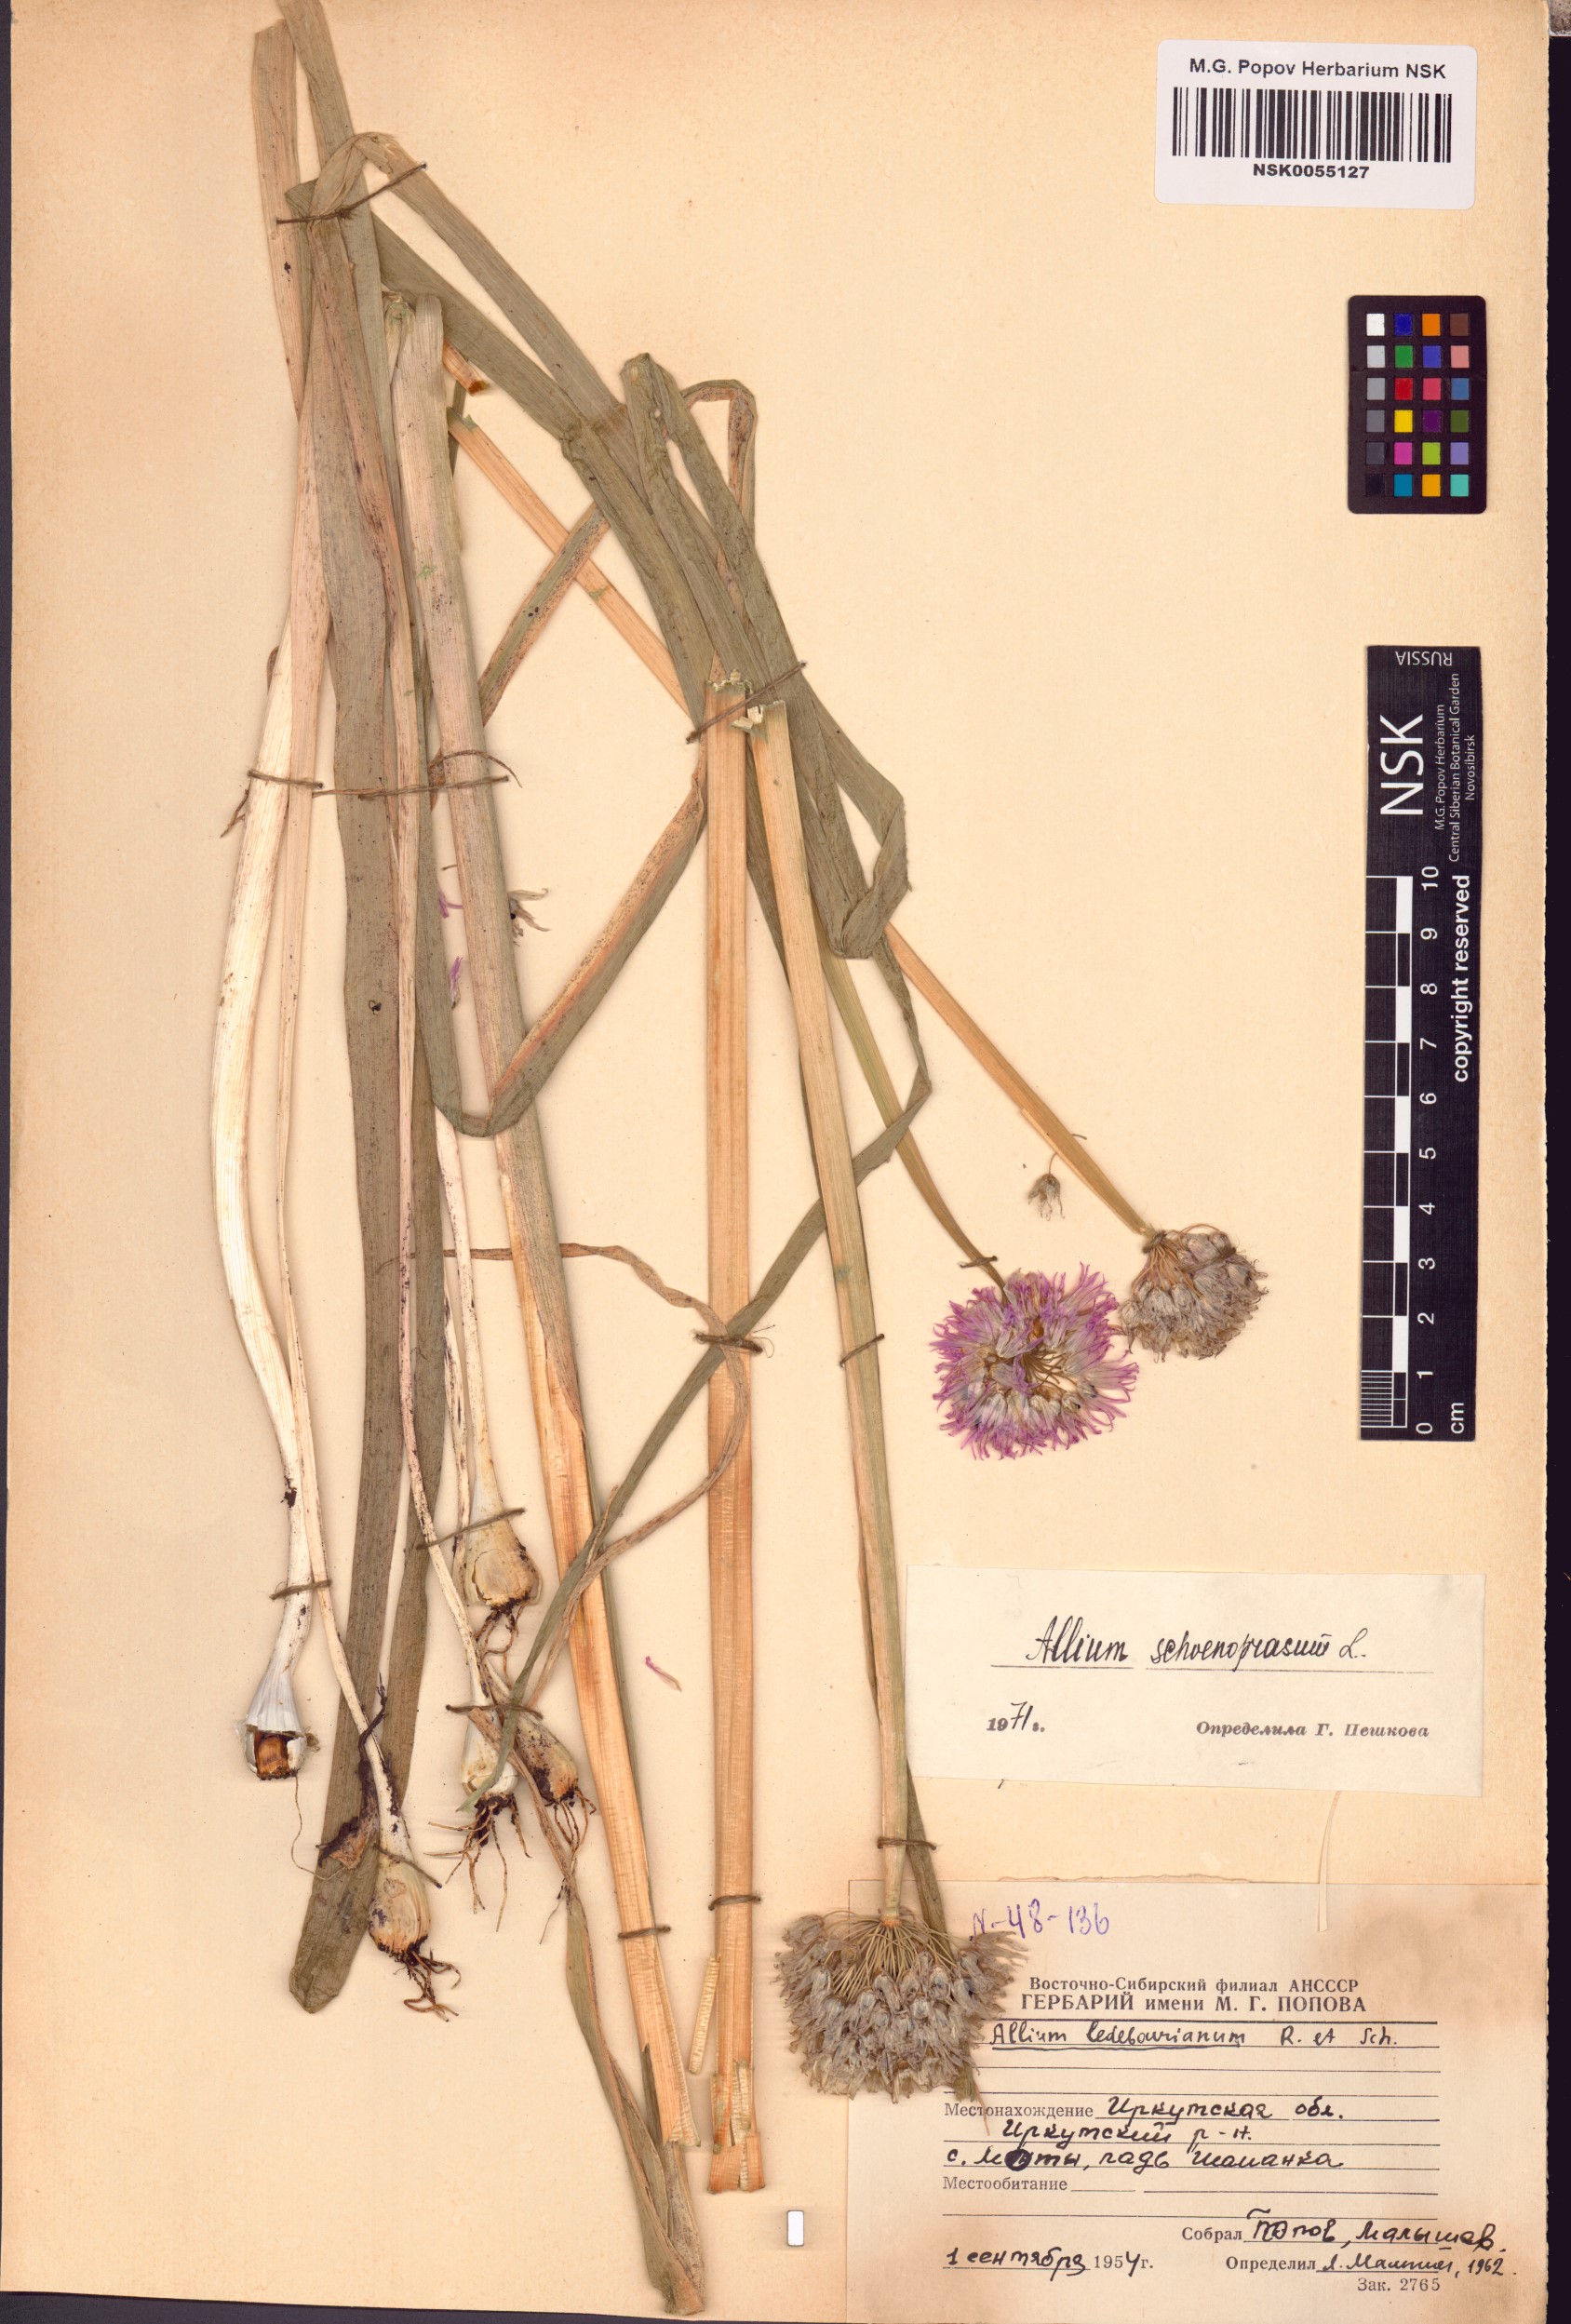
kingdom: Plantae
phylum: Tracheophyta
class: Liliopsida
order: Asparagales
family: Amaryllidaceae
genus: Allium
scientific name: Allium schoenoprasum
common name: Chives
